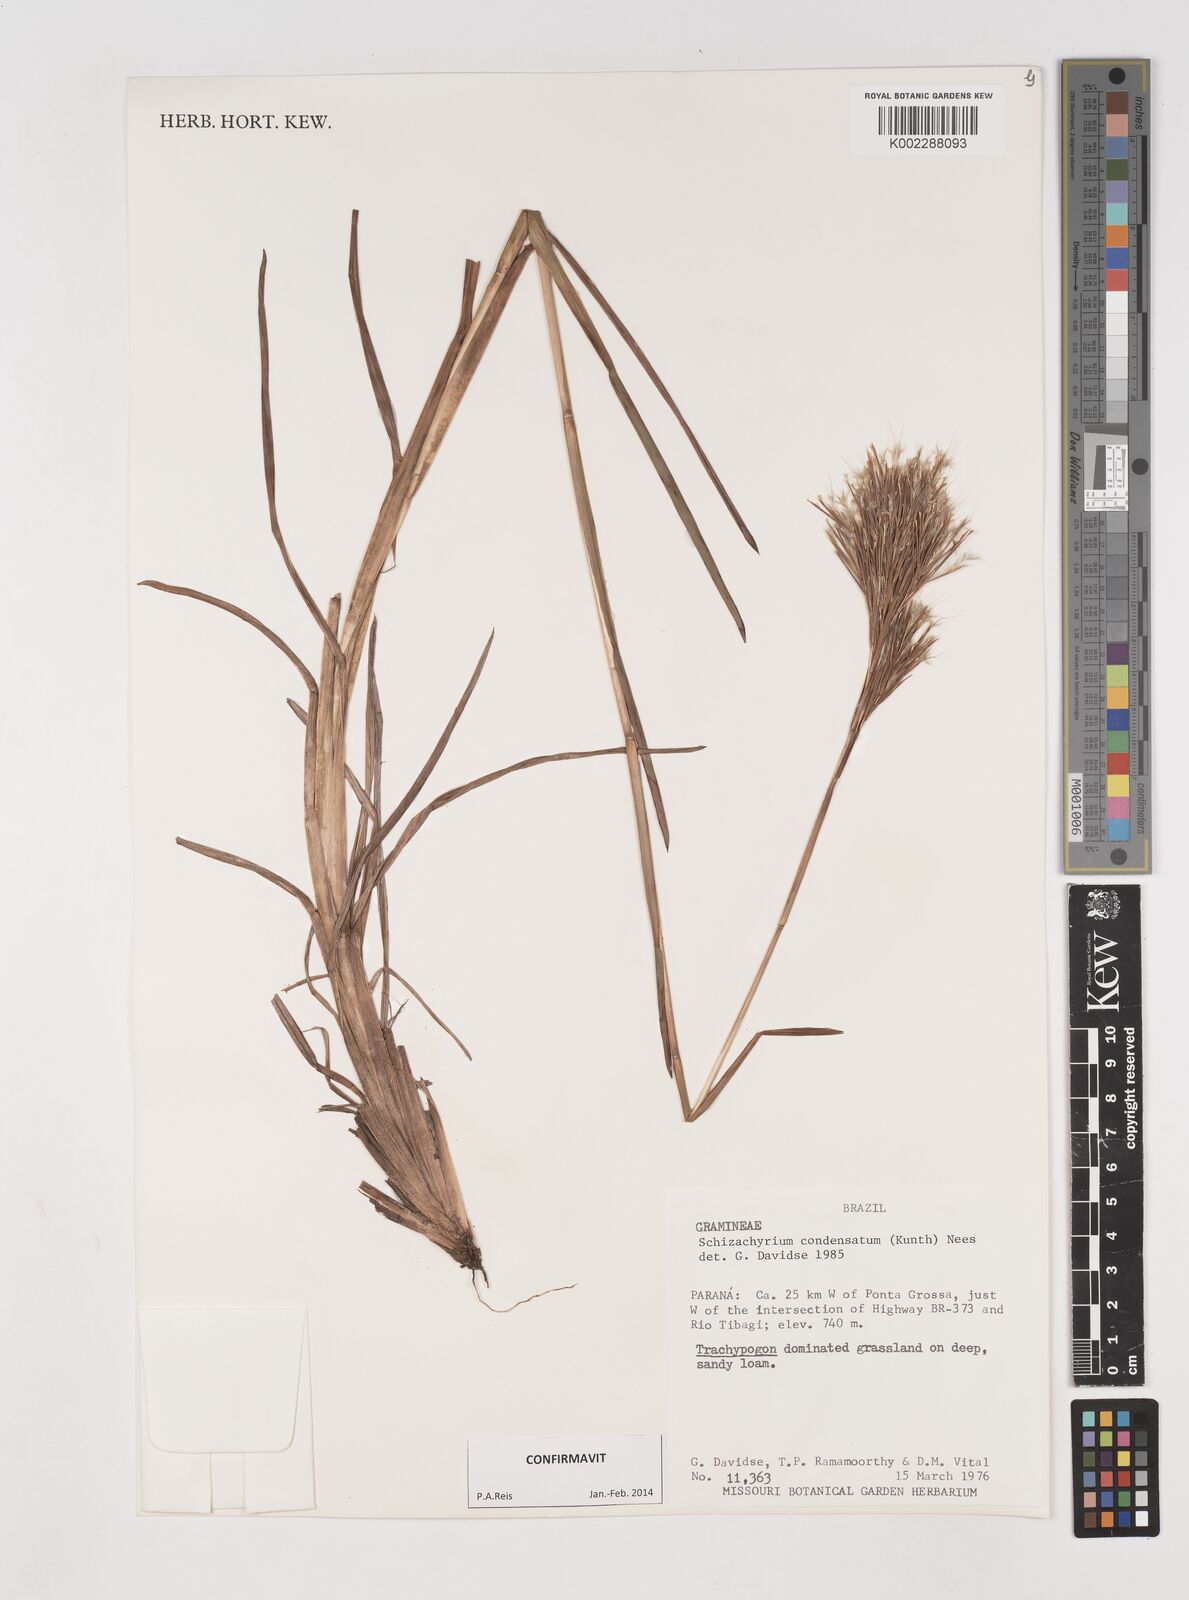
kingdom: Plantae
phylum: Tracheophyta
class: Liliopsida
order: Poales
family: Poaceae
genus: Schizachyrium
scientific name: Schizachyrium condensatum
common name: Bush beardgrass
